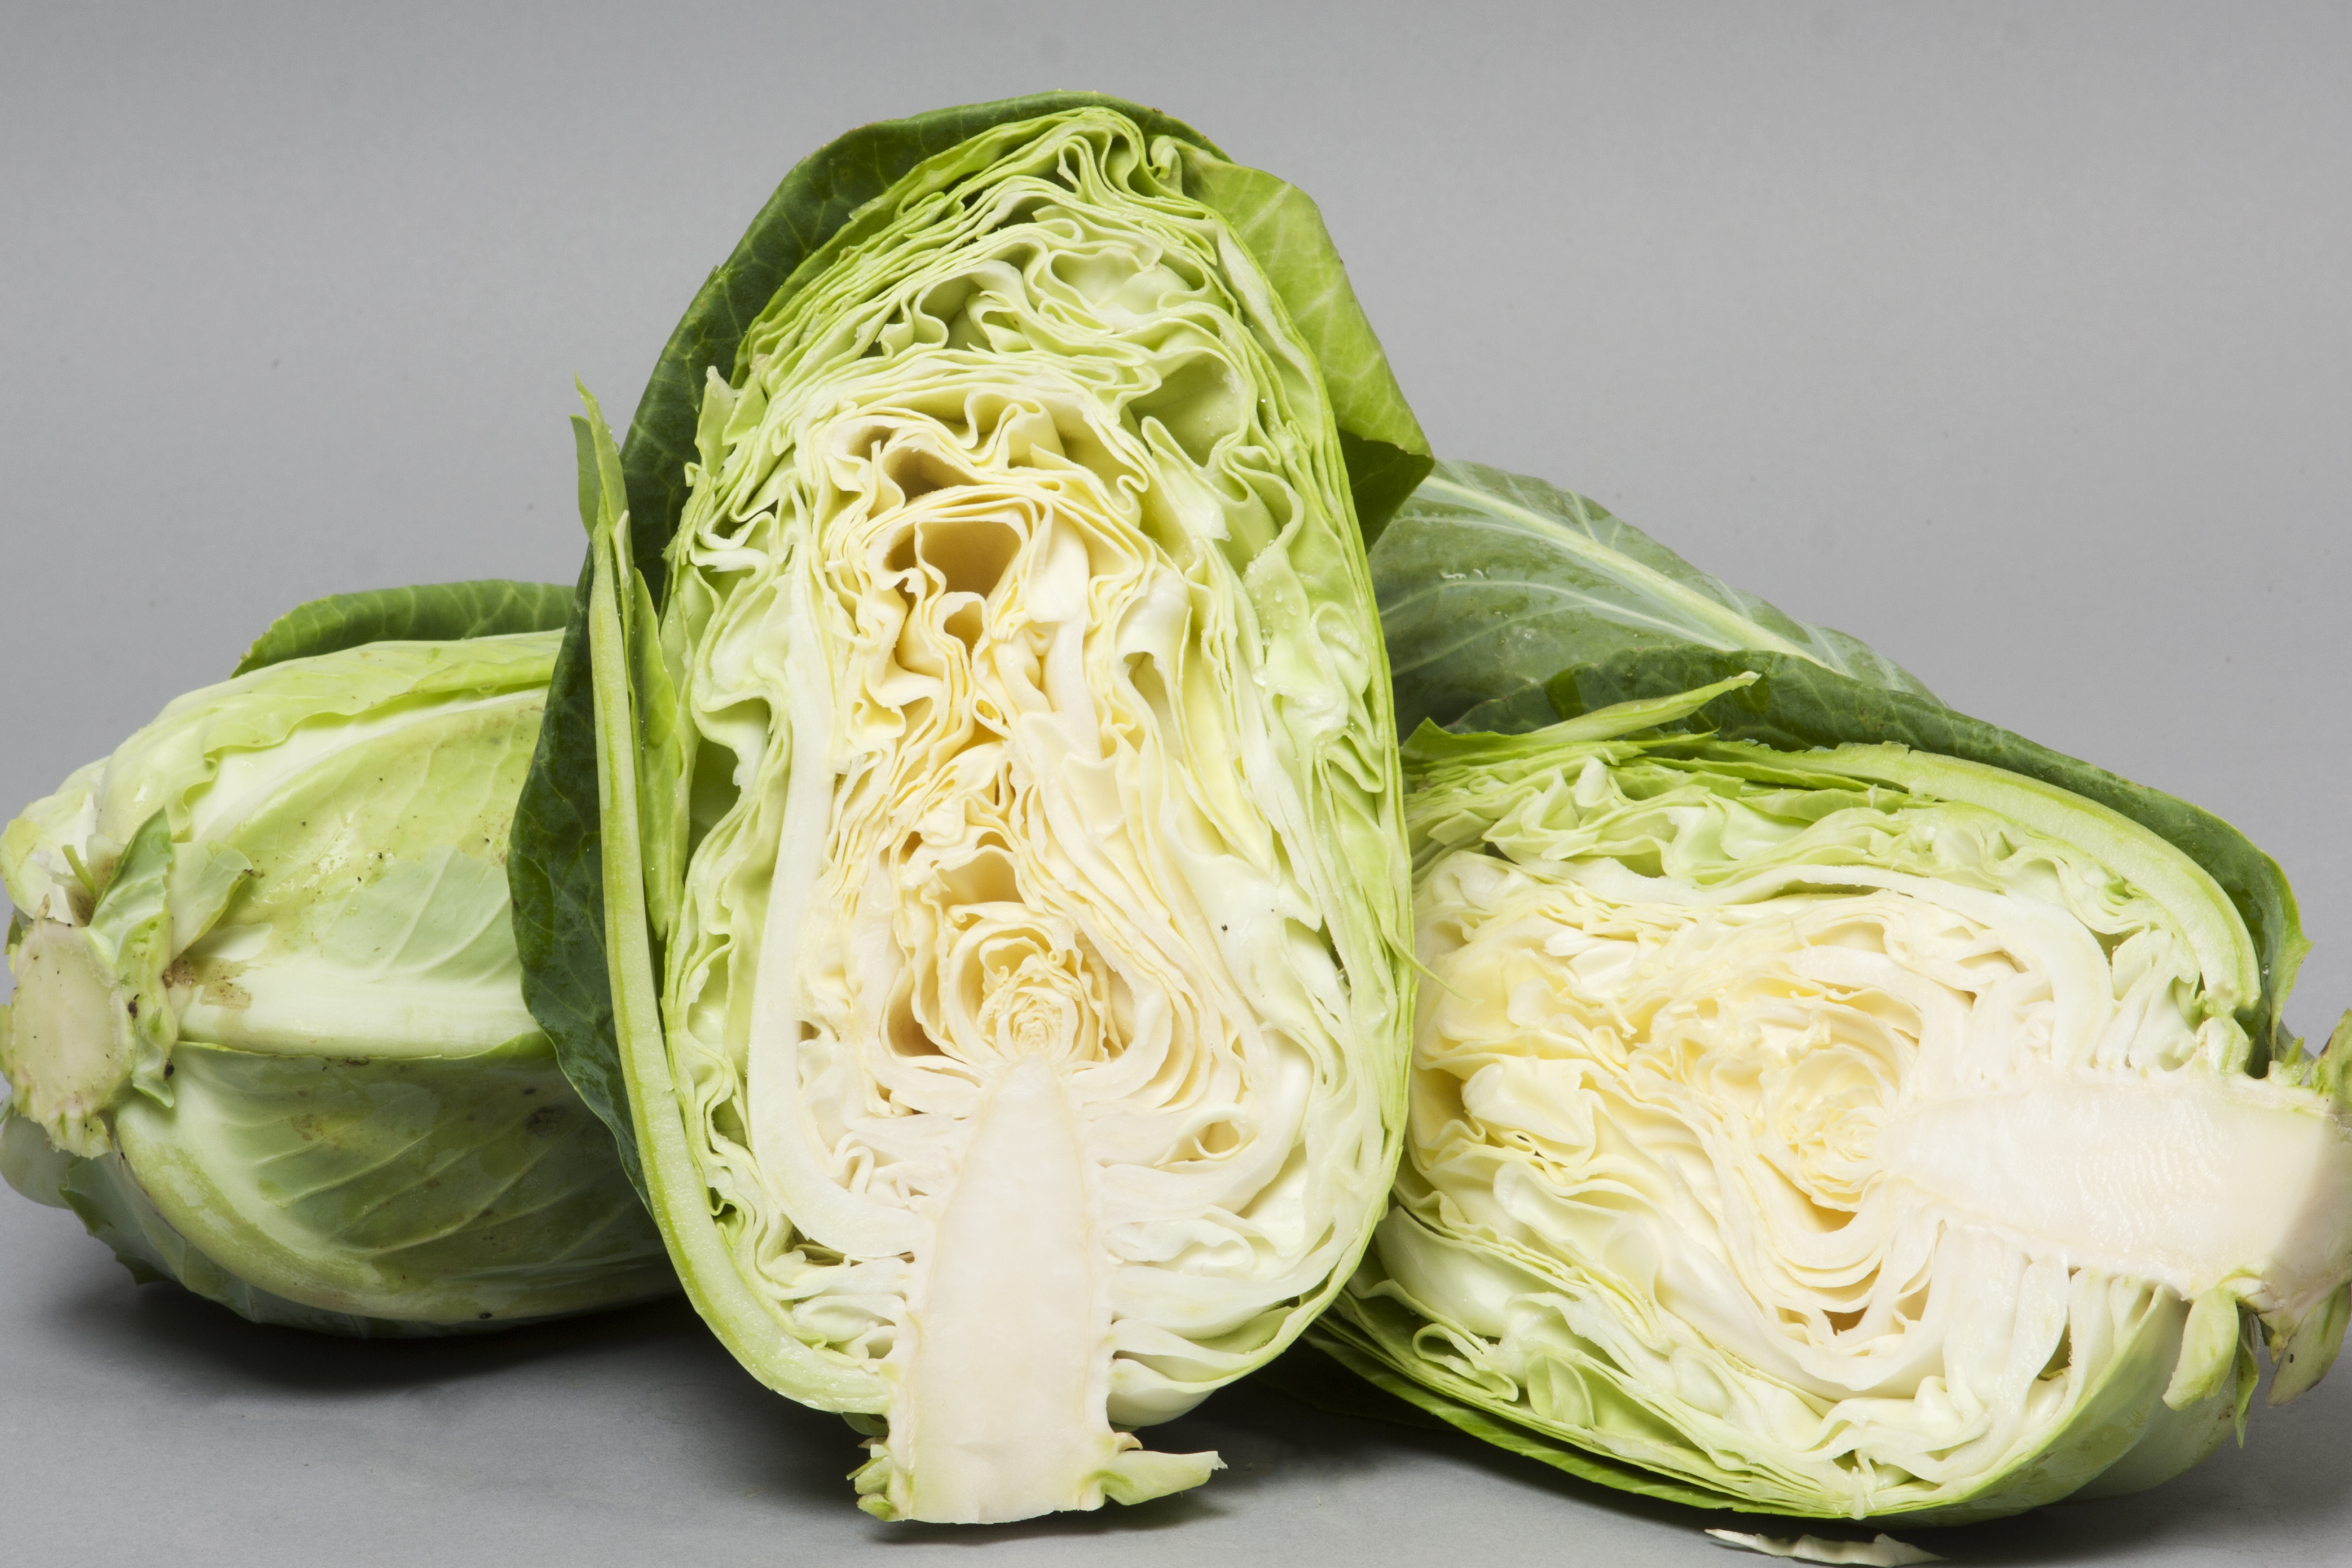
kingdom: Plantae
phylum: Tracheophyta
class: Magnoliopsida
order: Brassicales
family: Brassicaceae
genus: Brassica
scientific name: Brassica oleracea
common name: Cabbage
